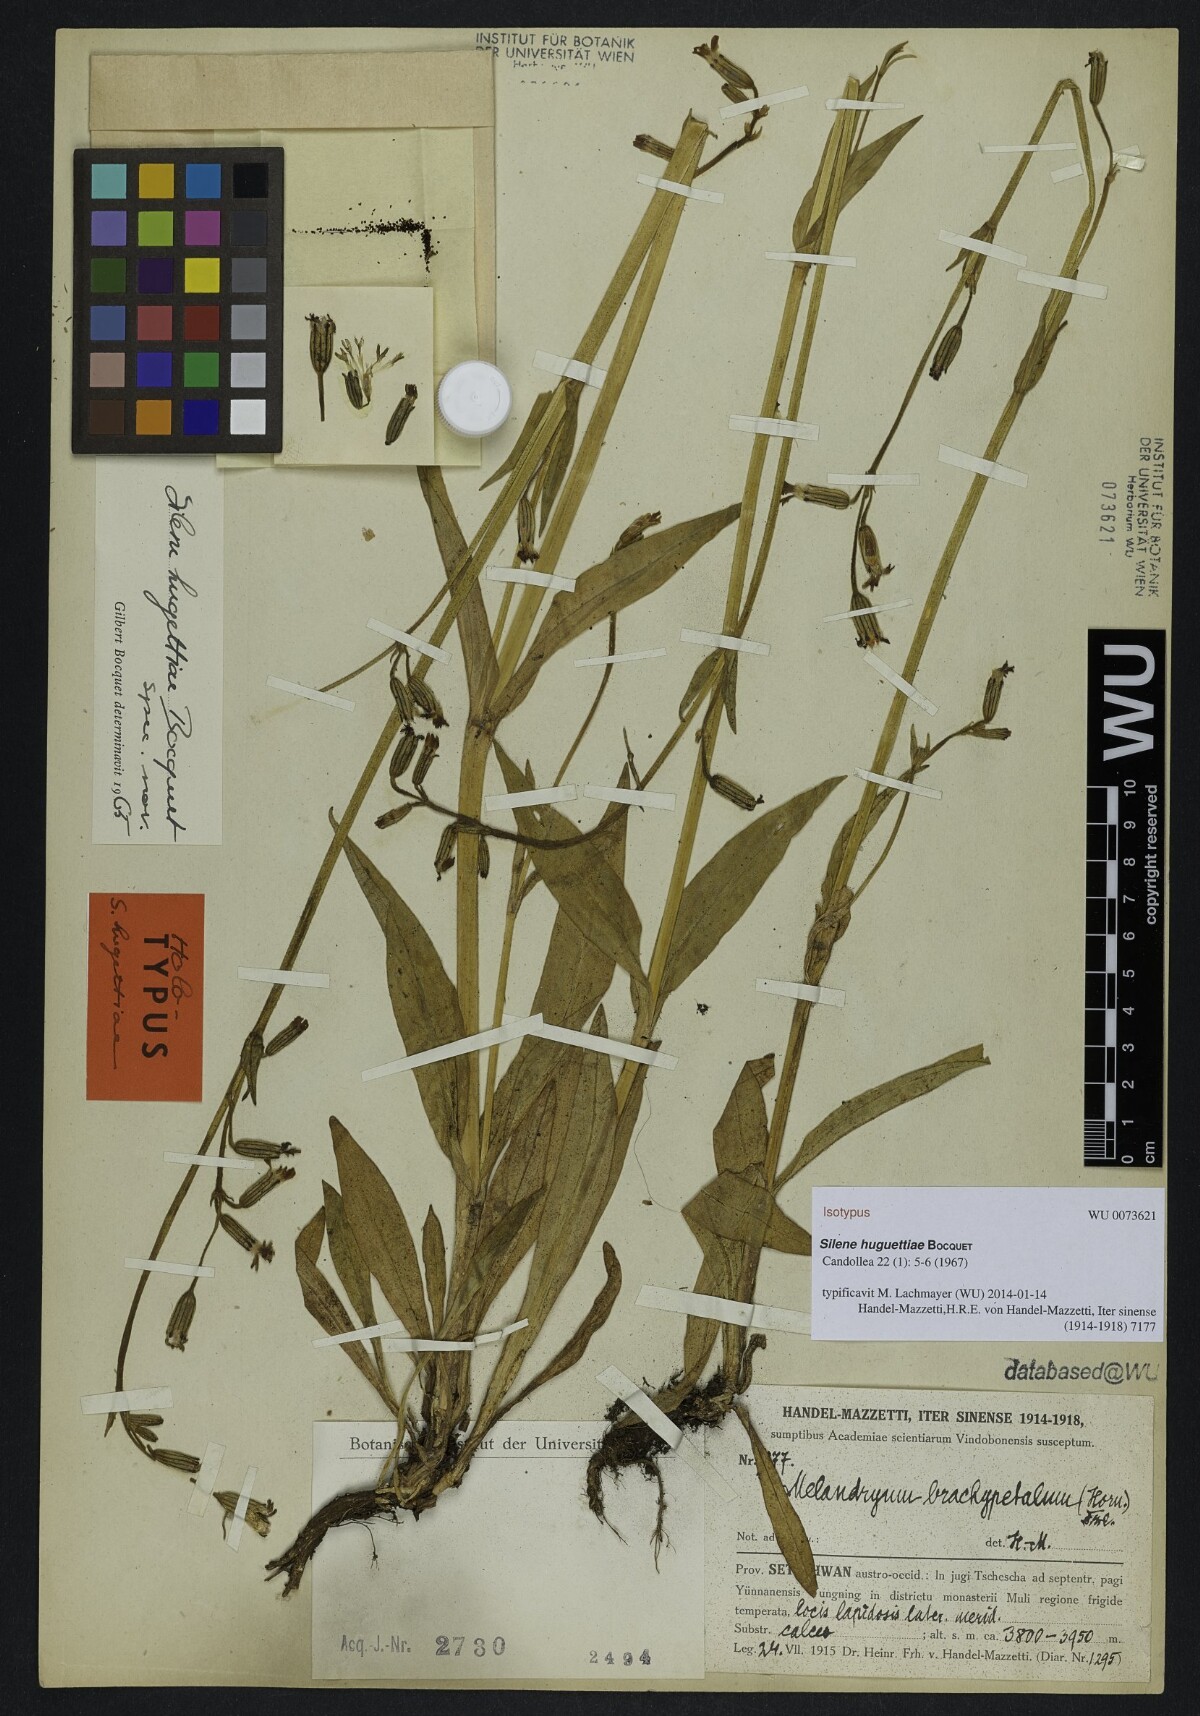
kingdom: Plantae
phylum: Tracheophyta
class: Magnoliopsida
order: Caryophyllales
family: Caryophyllaceae
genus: Silene
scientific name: Silene huguettiae
